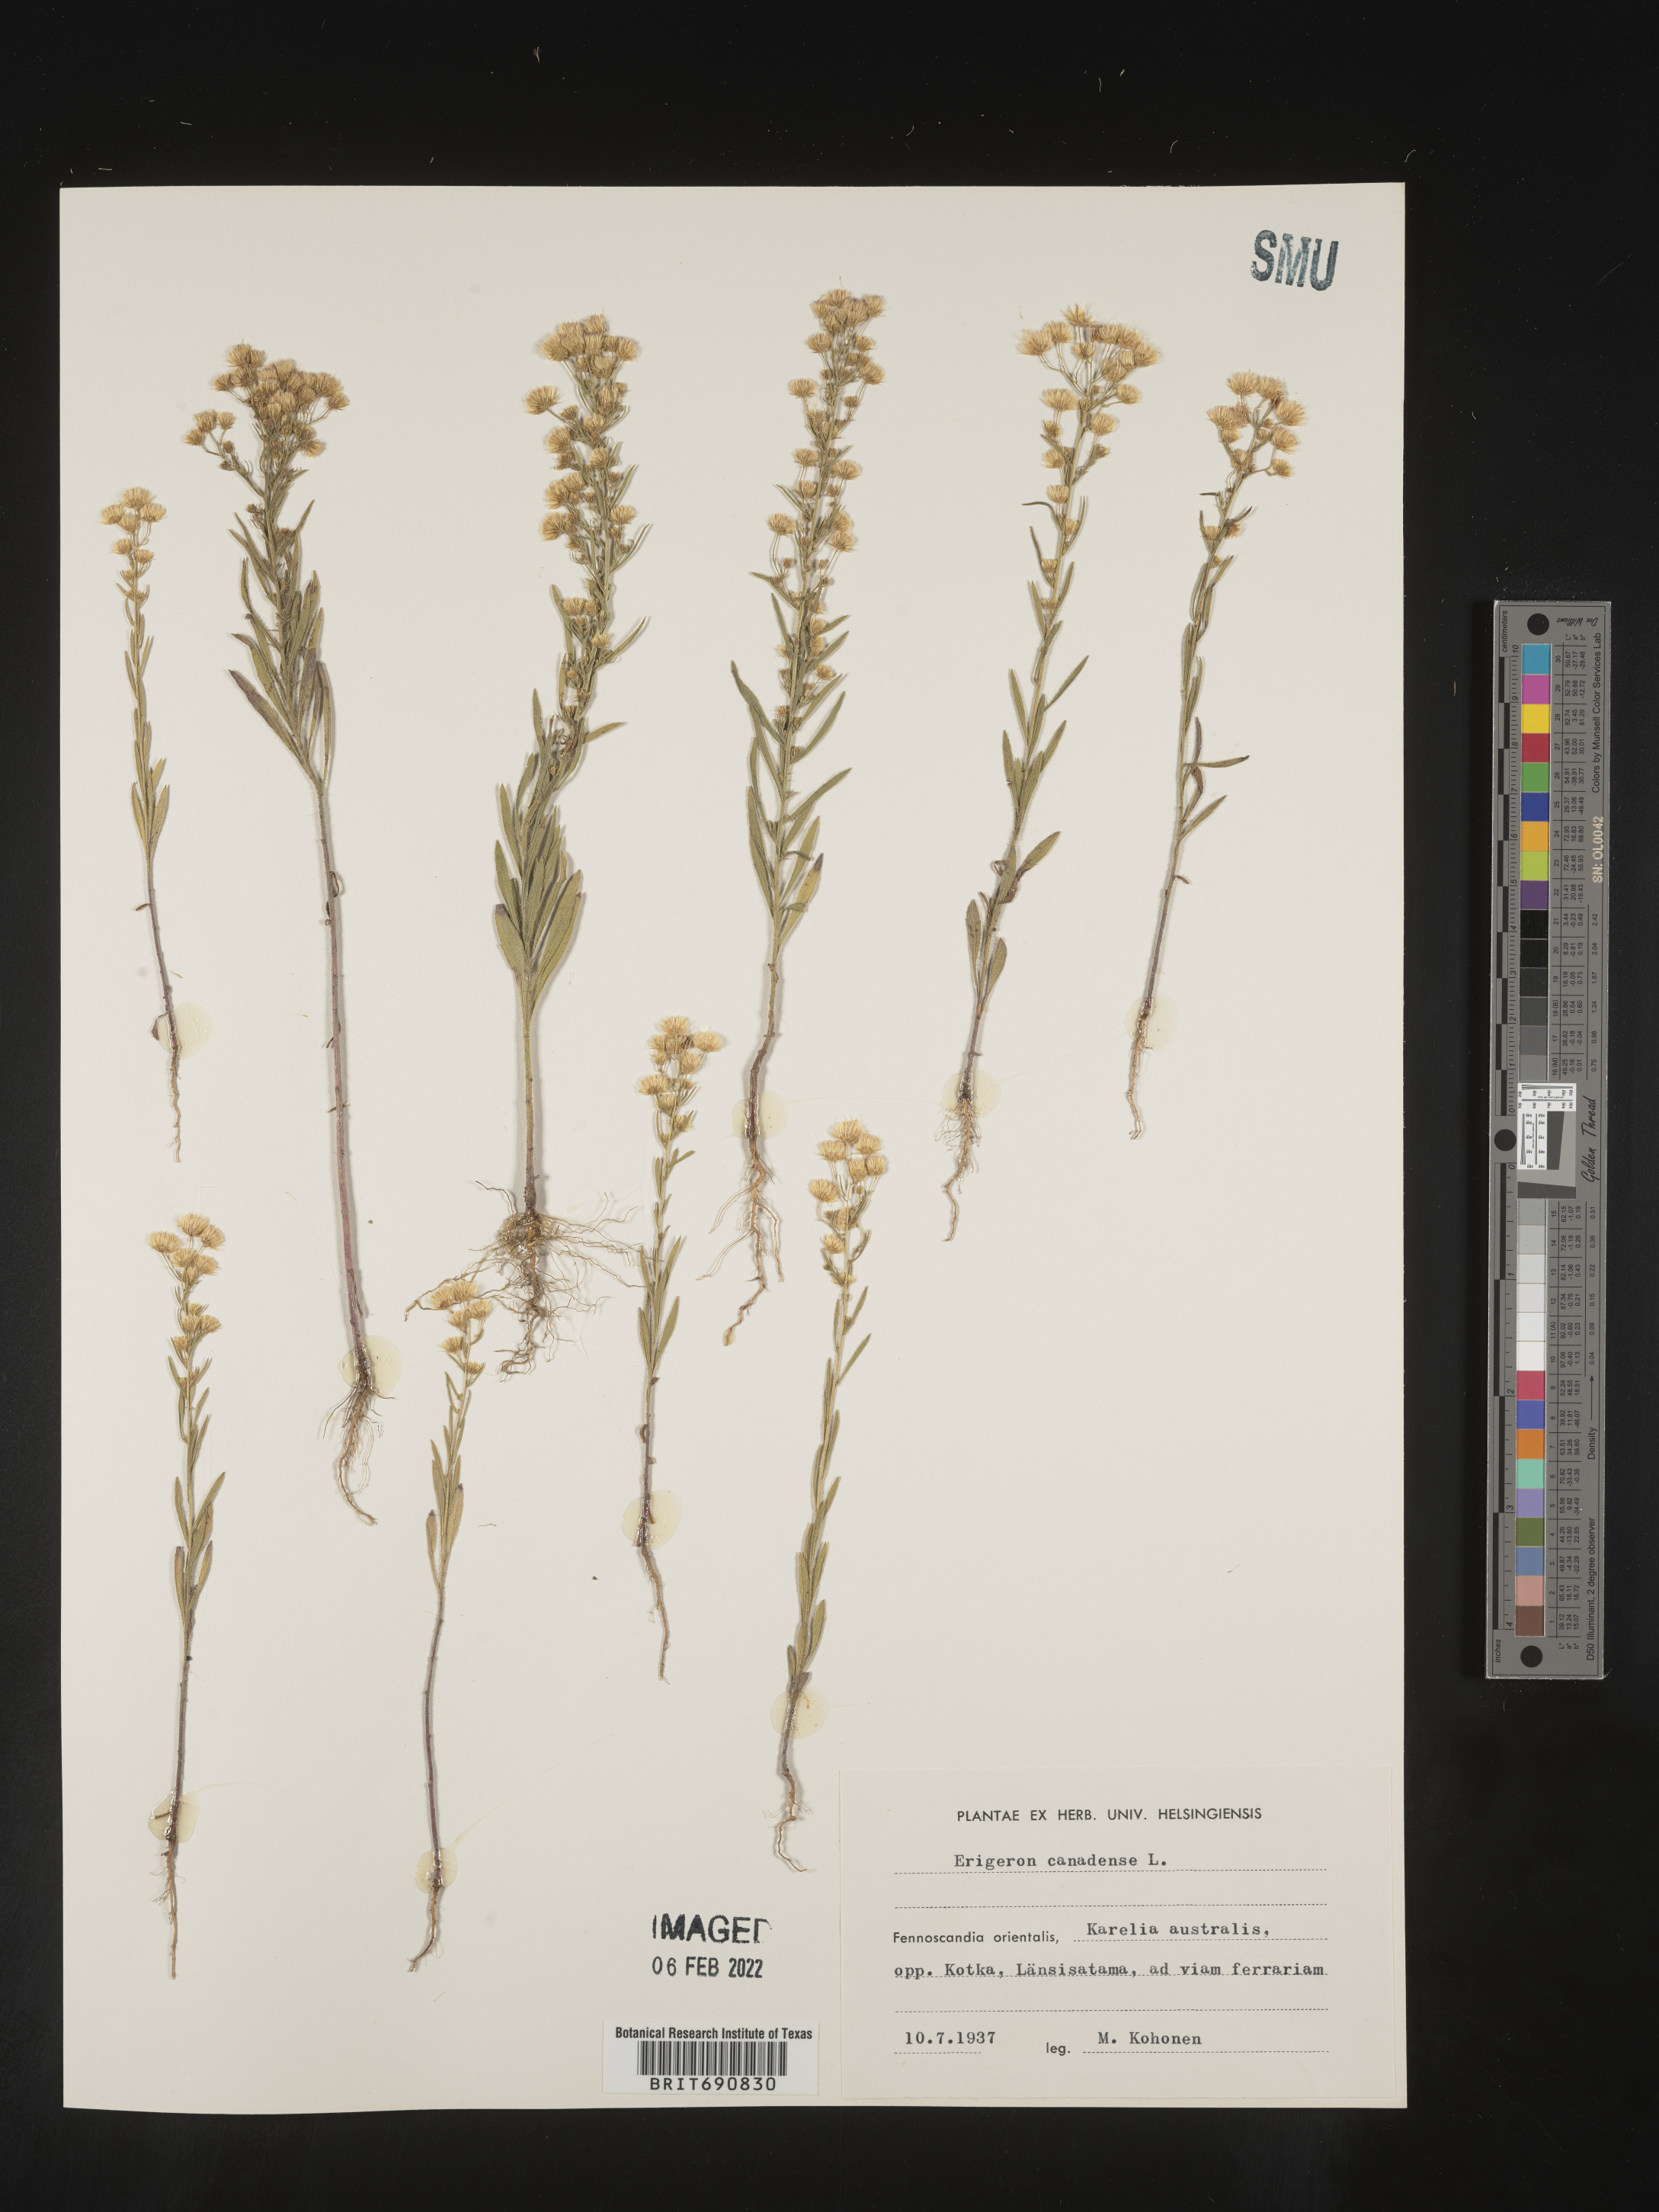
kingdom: Plantae
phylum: Tracheophyta
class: Magnoliopsida
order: Asterales
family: Asteraceae
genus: Conyza
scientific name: Conyza
